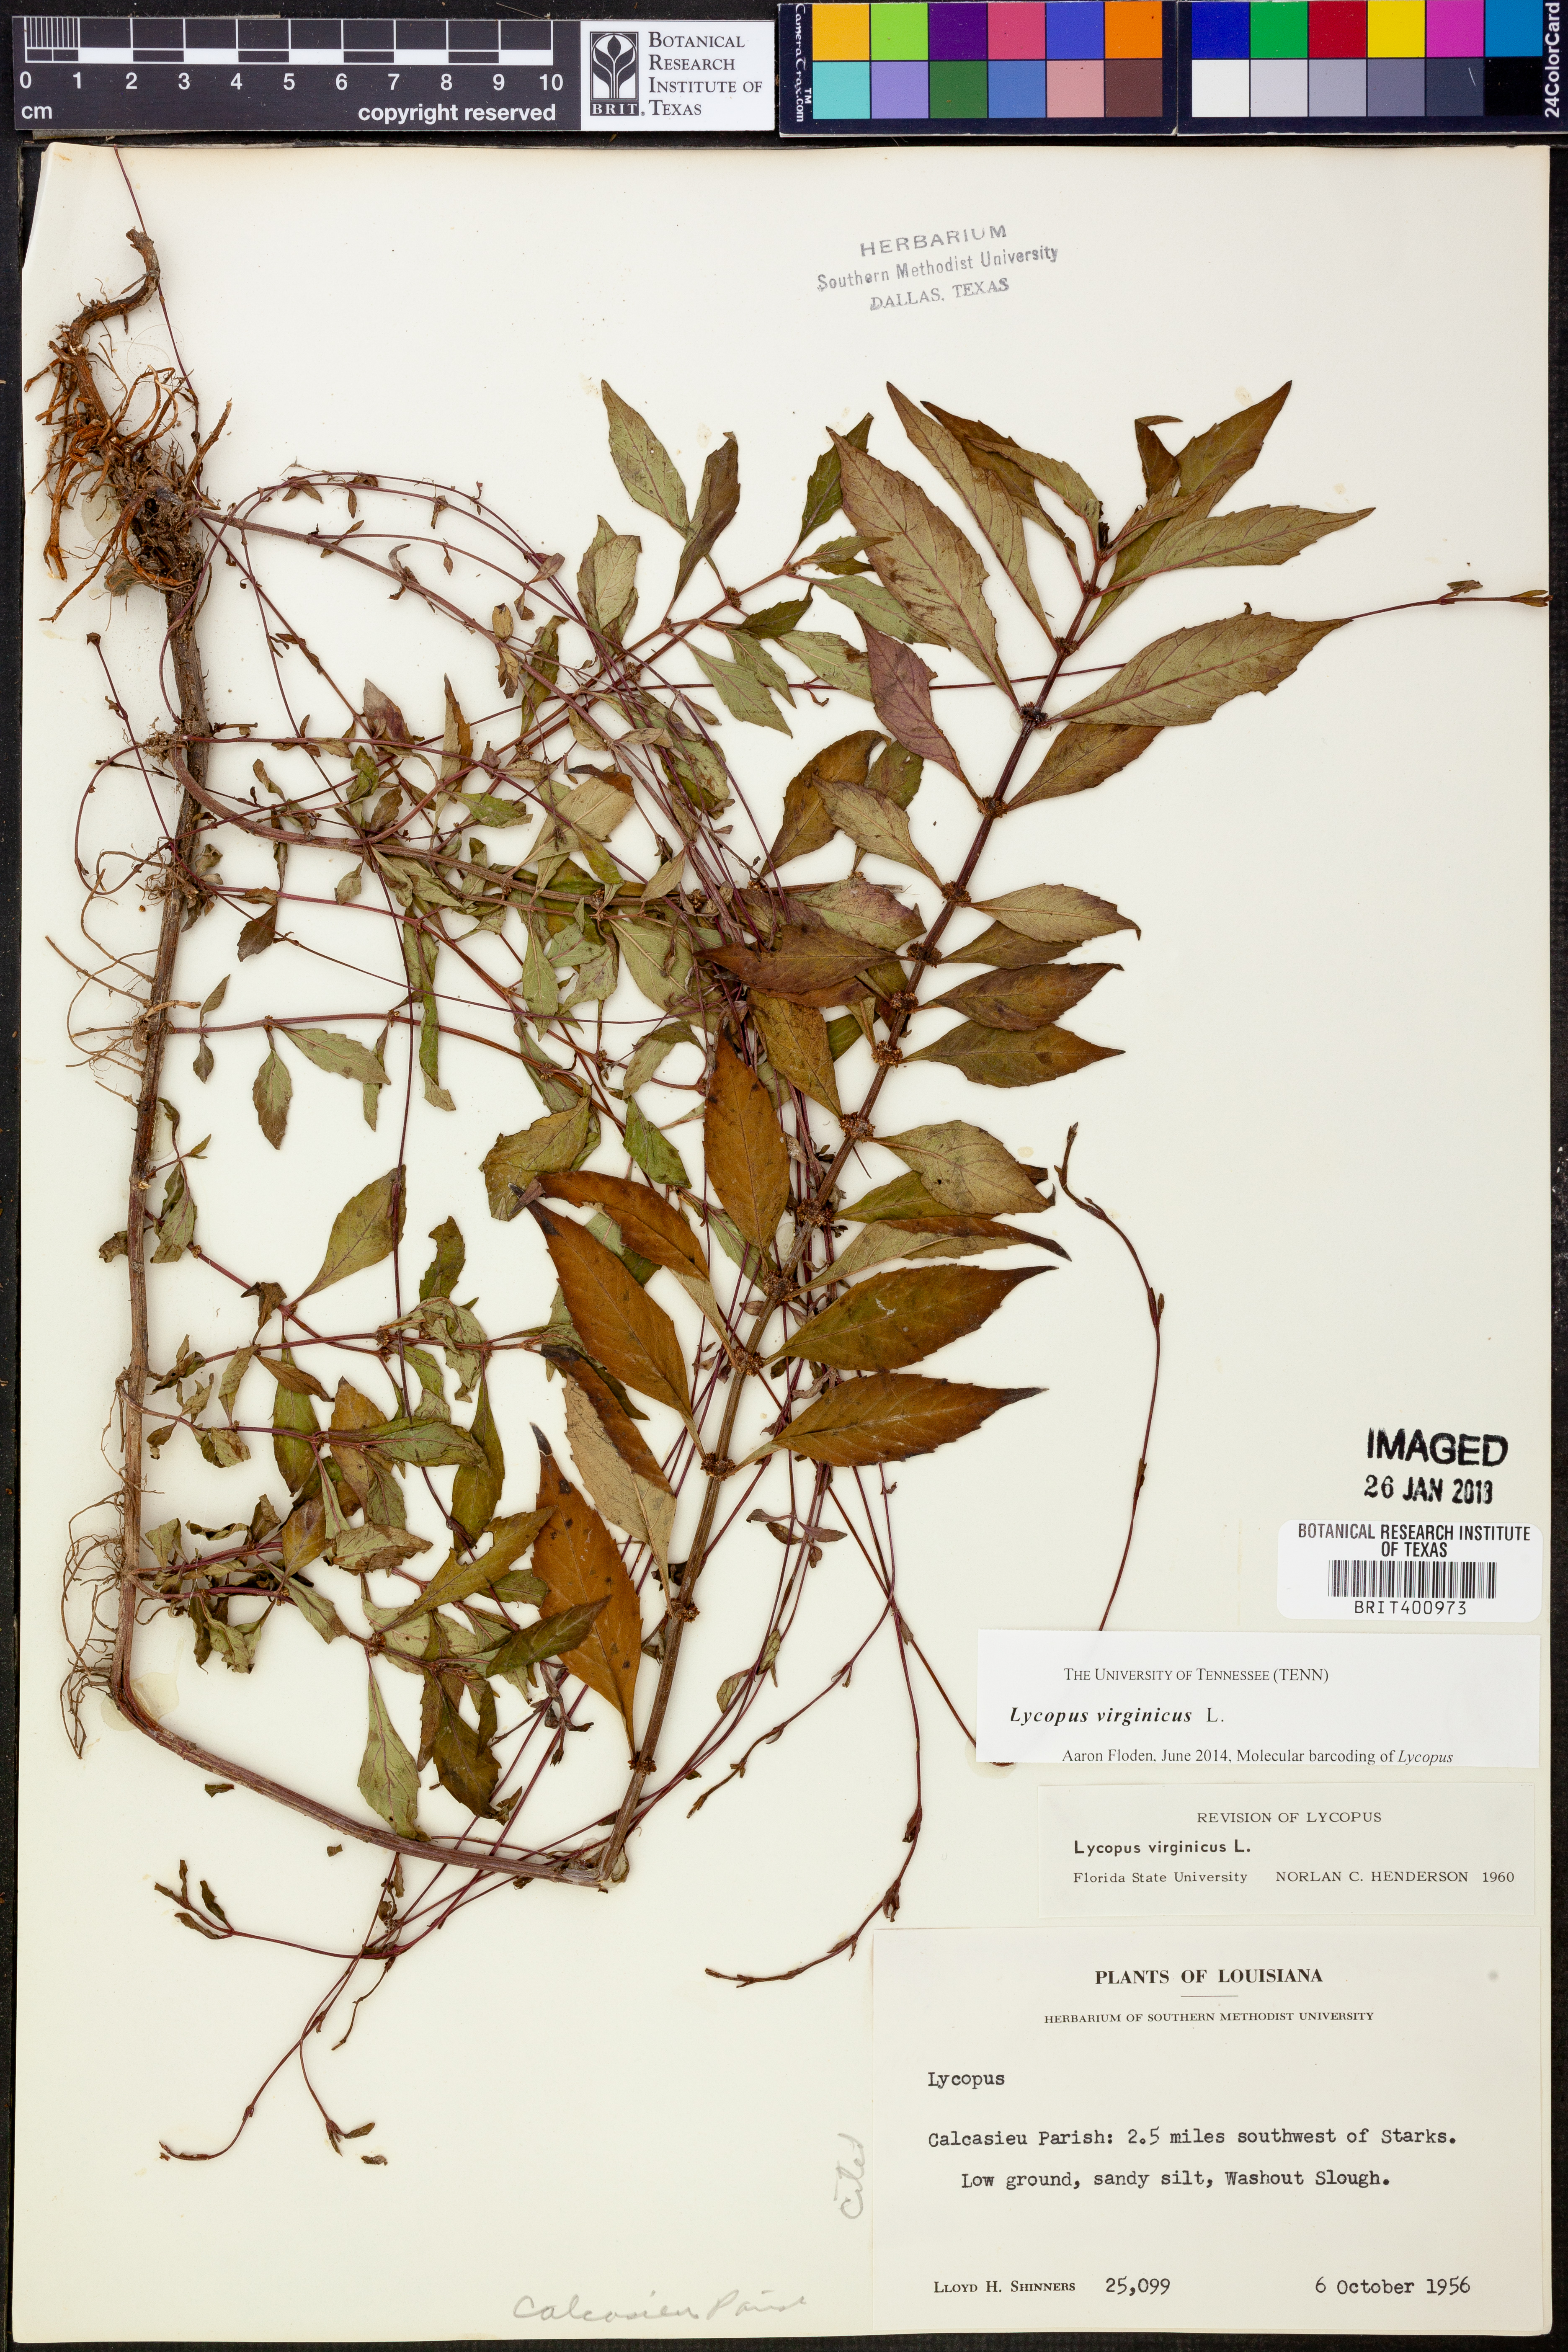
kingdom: Plantae
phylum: Tracheophyta
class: Magnoliopsida
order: Lamiales
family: Lamiaceae
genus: Lycopus
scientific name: Lycopus virginicus
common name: Bugleweed
